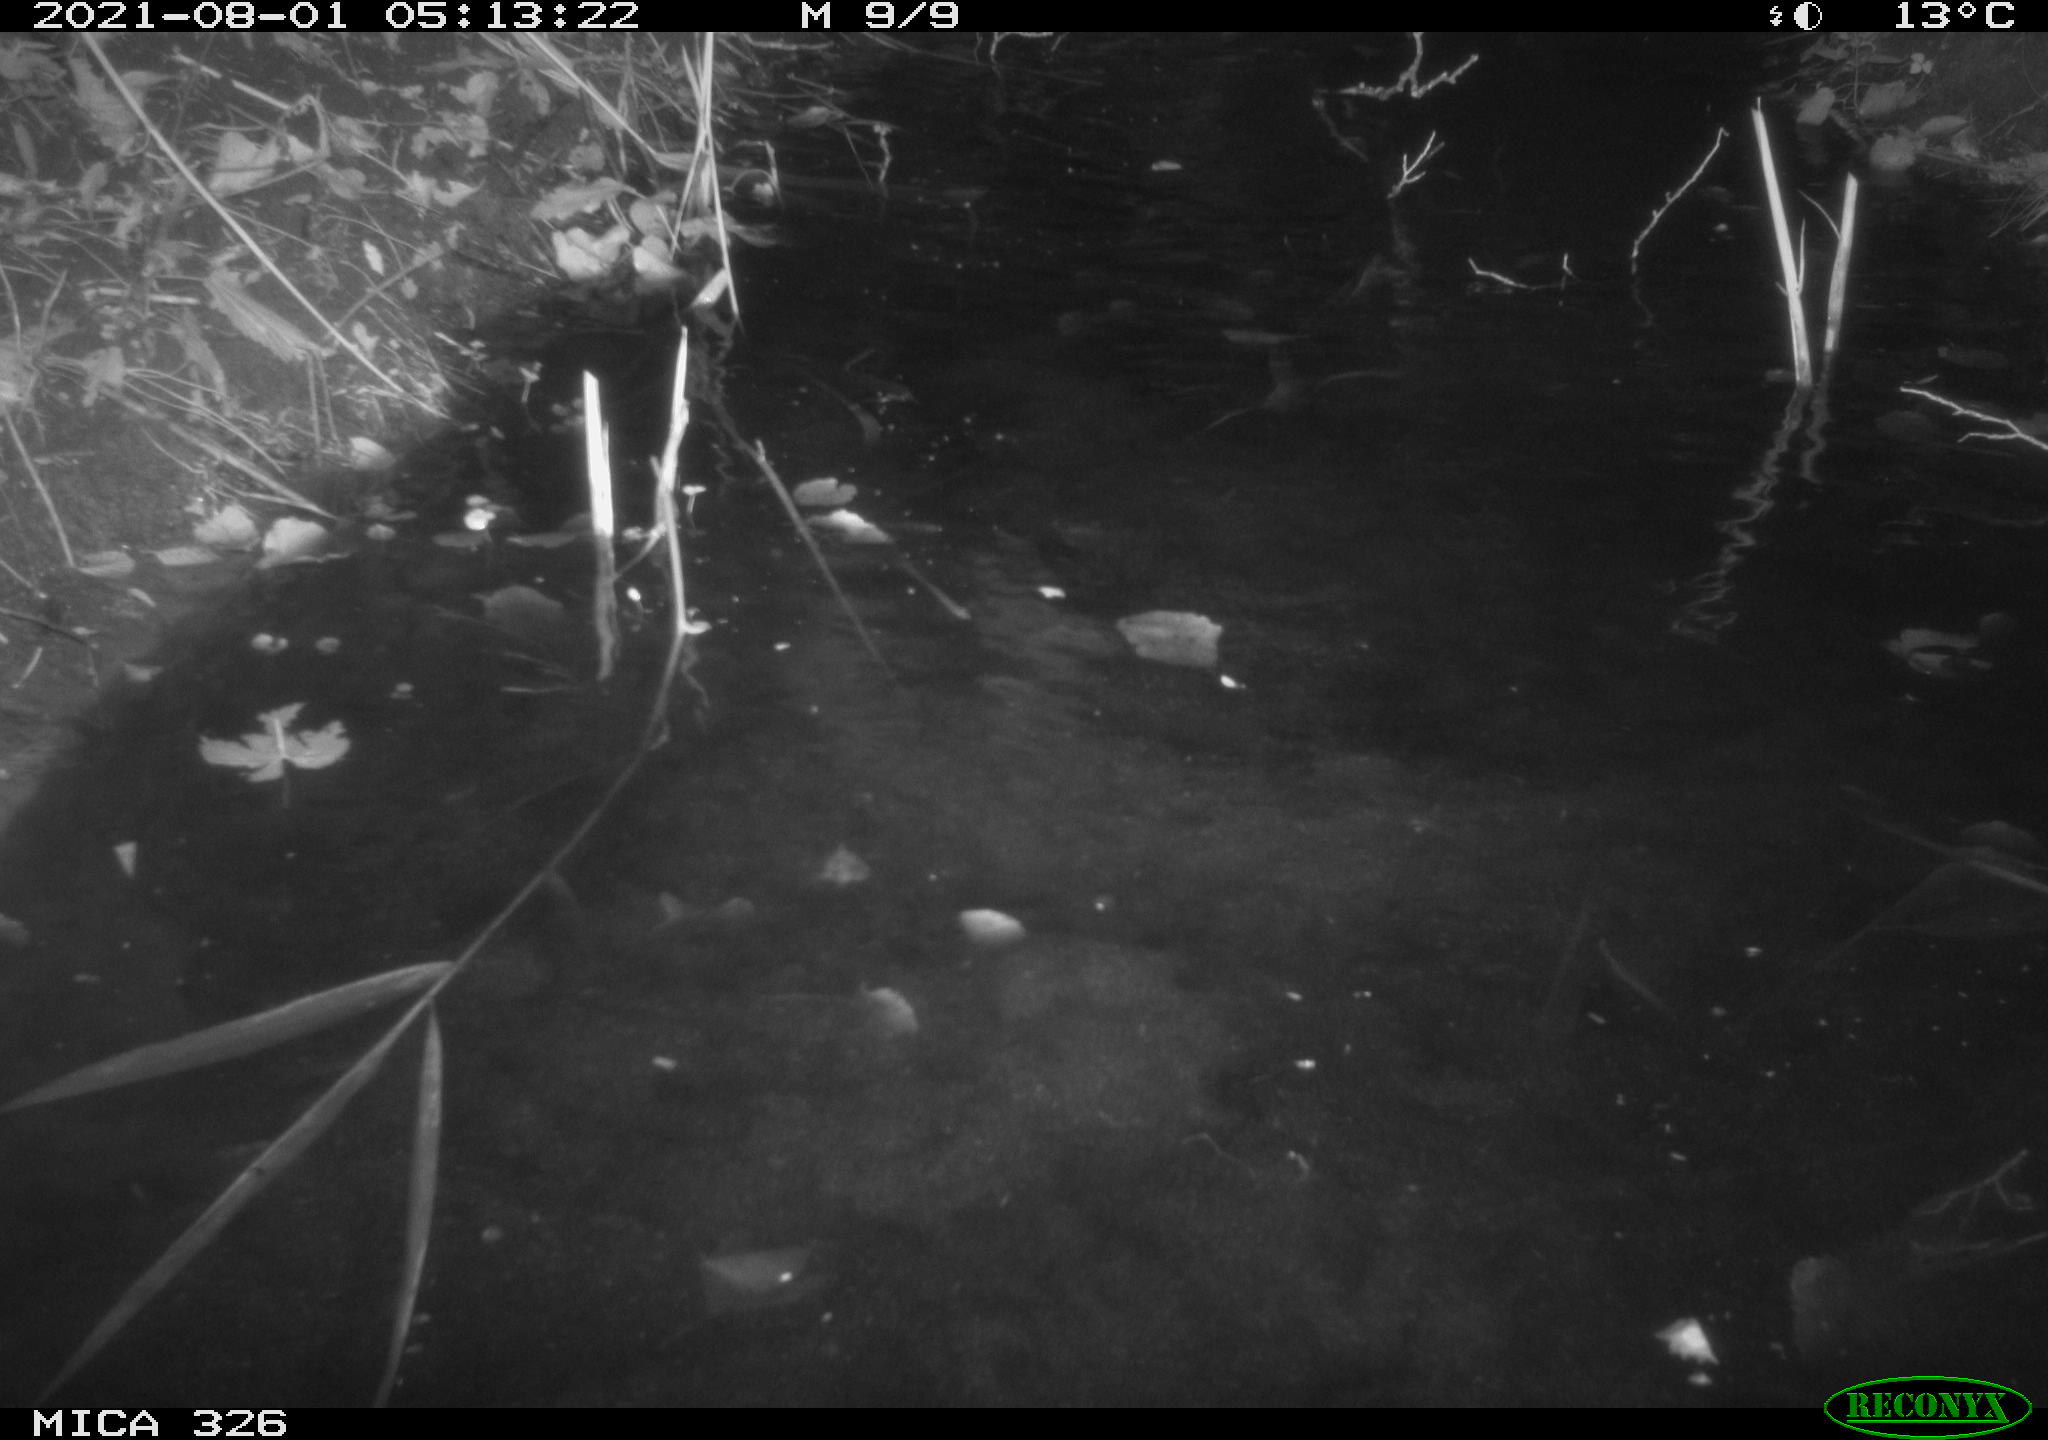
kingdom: Animalia
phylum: Chordata
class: Mammalia
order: Carnivora
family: Mustelidae
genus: Lutra
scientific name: Lutra lutra
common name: European otter
